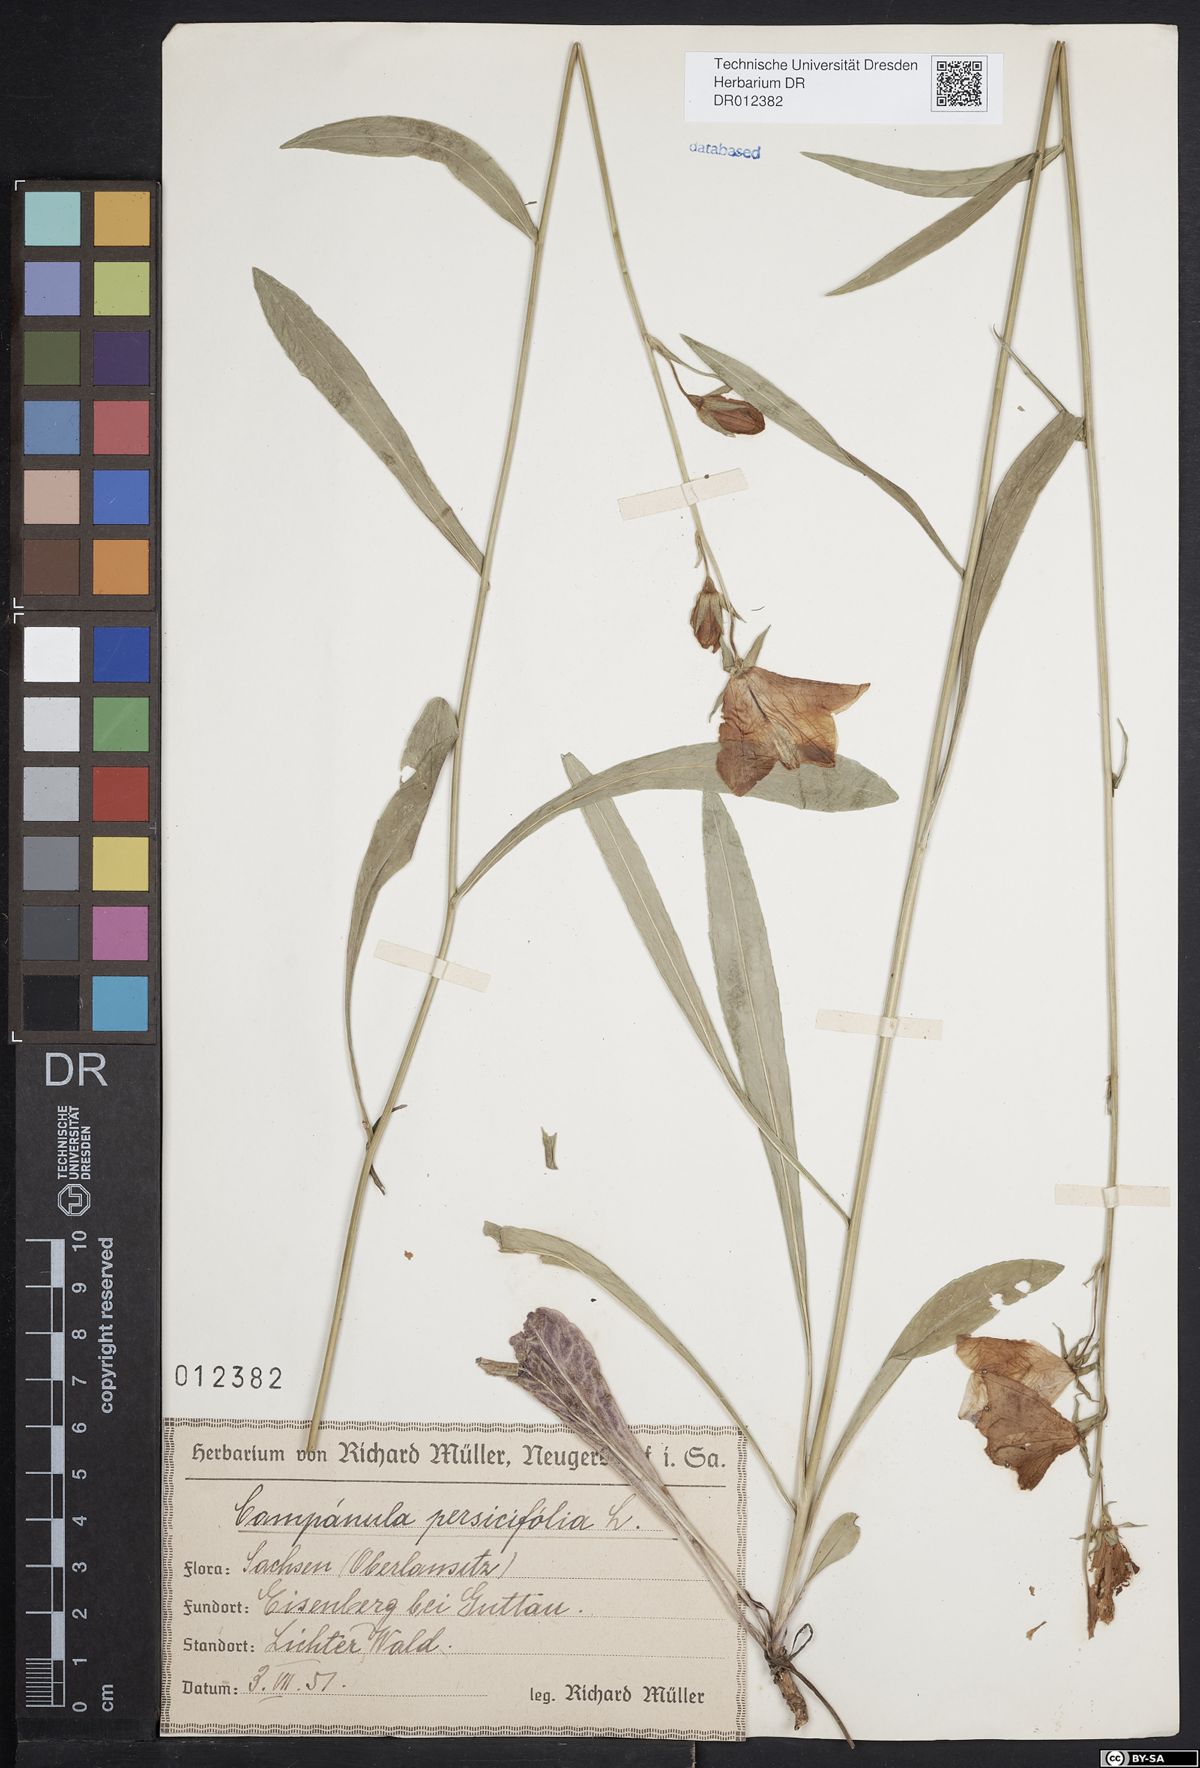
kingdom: Plantae
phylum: Tracheophyta
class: Magnoliopsida
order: Asterales
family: Campanulaceae
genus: Campanula
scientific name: Campanula persicifolia
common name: Peach-leaved bellflower
